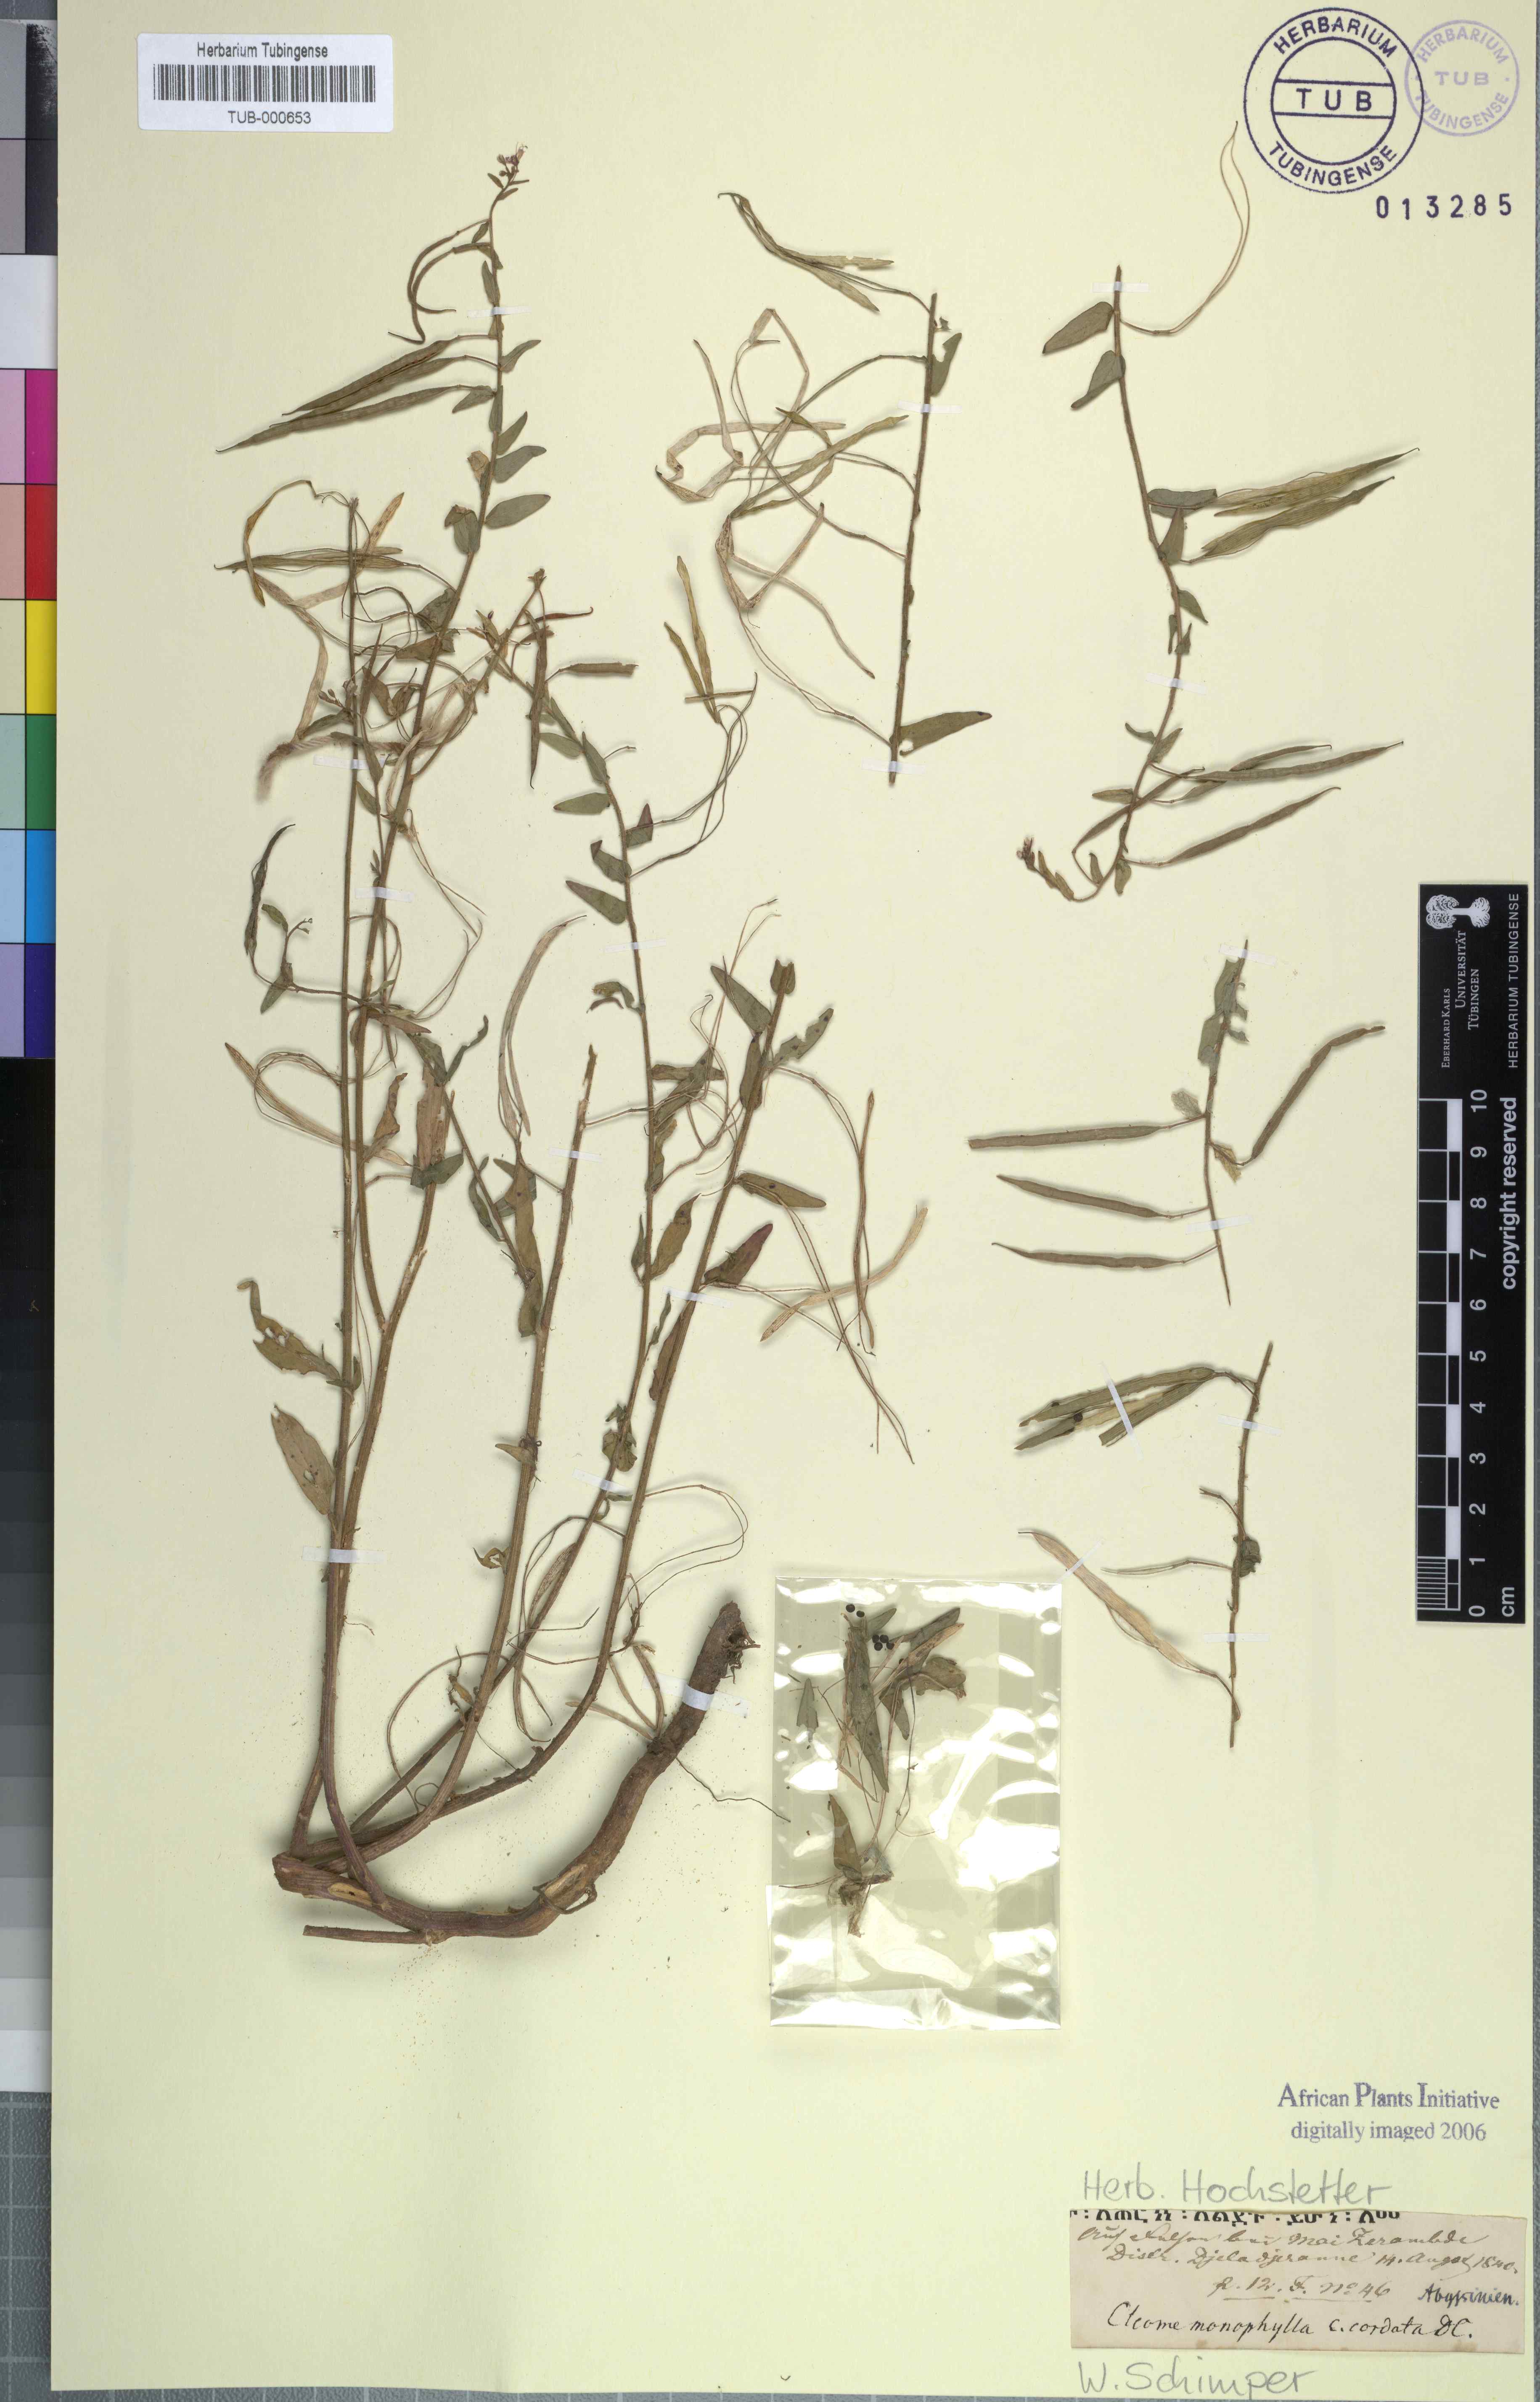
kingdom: Plantae
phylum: Tracheophyta
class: Magnoliopsida
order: Brassicales
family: Cleomaceae
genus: Sieruela
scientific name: Sieruela monophylla
